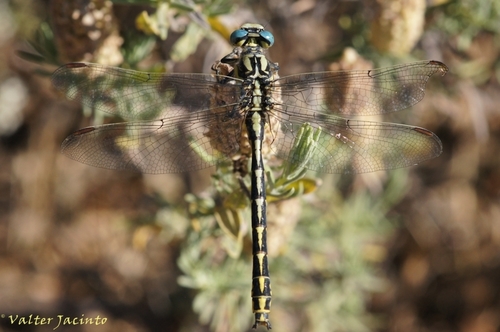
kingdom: Animalia
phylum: Arthropoda
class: Insecta
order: Odonata
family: Gomphidae
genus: Gomphus
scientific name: Gomphus graslinii
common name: Pronged clubtail
